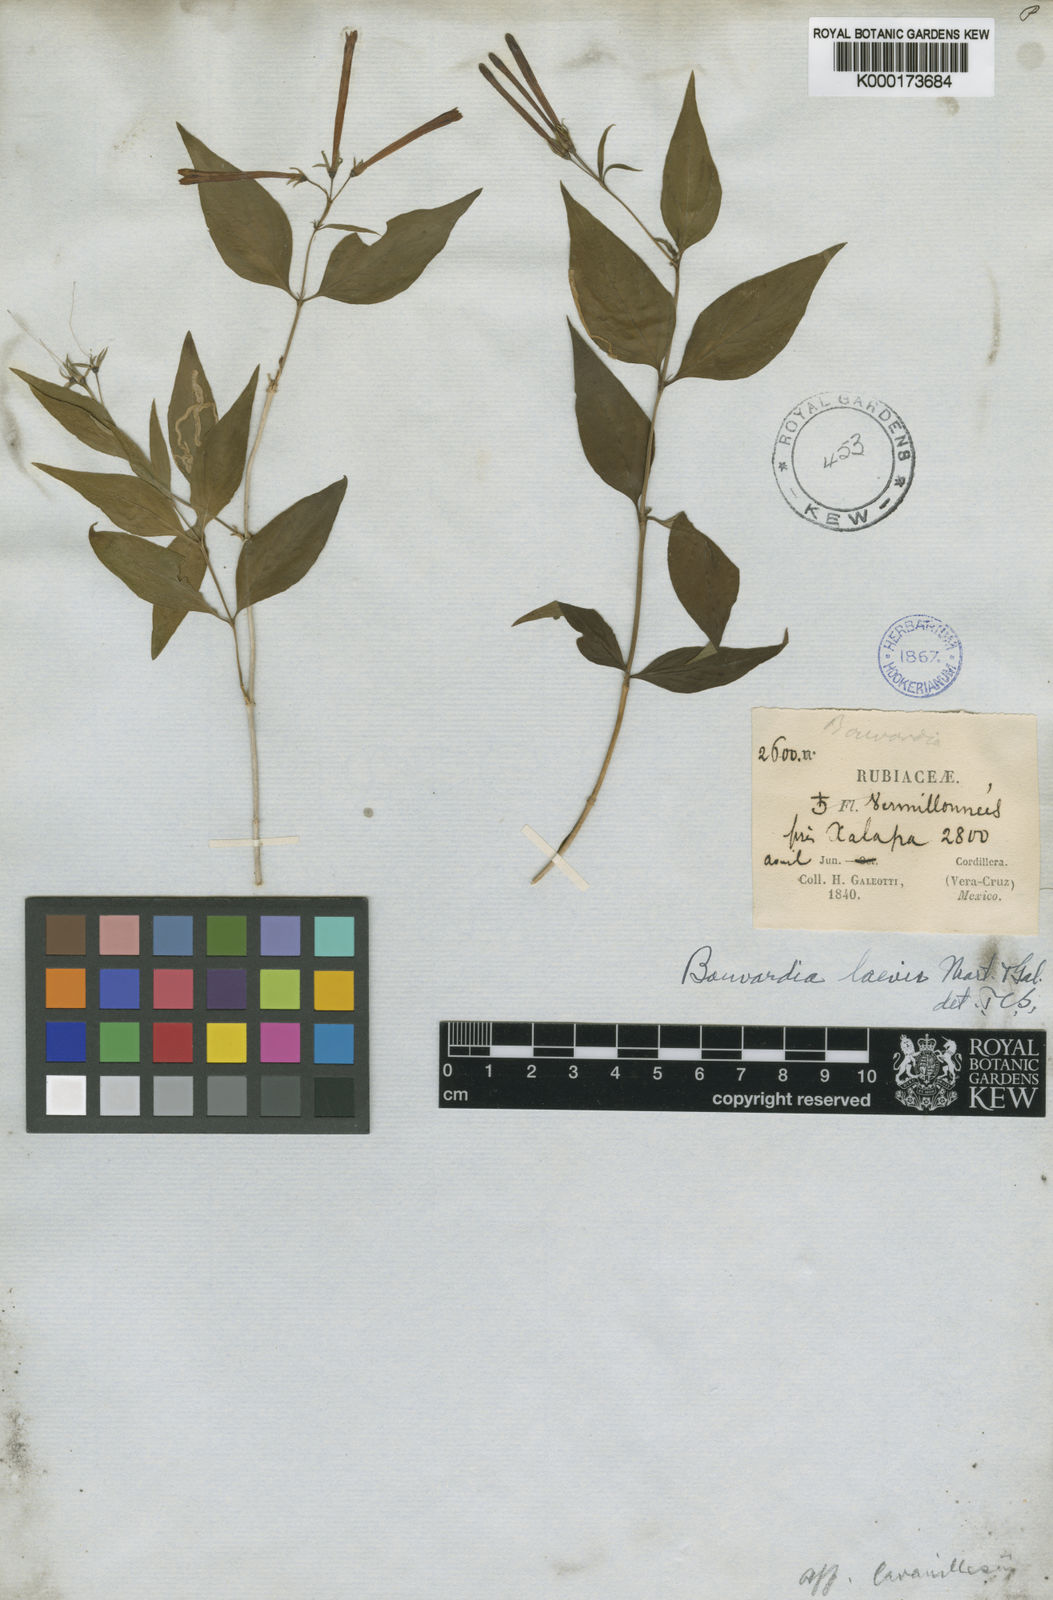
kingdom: Plantae
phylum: Tracheophyta
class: Magnoliopsida
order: Gentianales
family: Rubiaceae
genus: Bouvardia
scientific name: Bouvardia laevis
